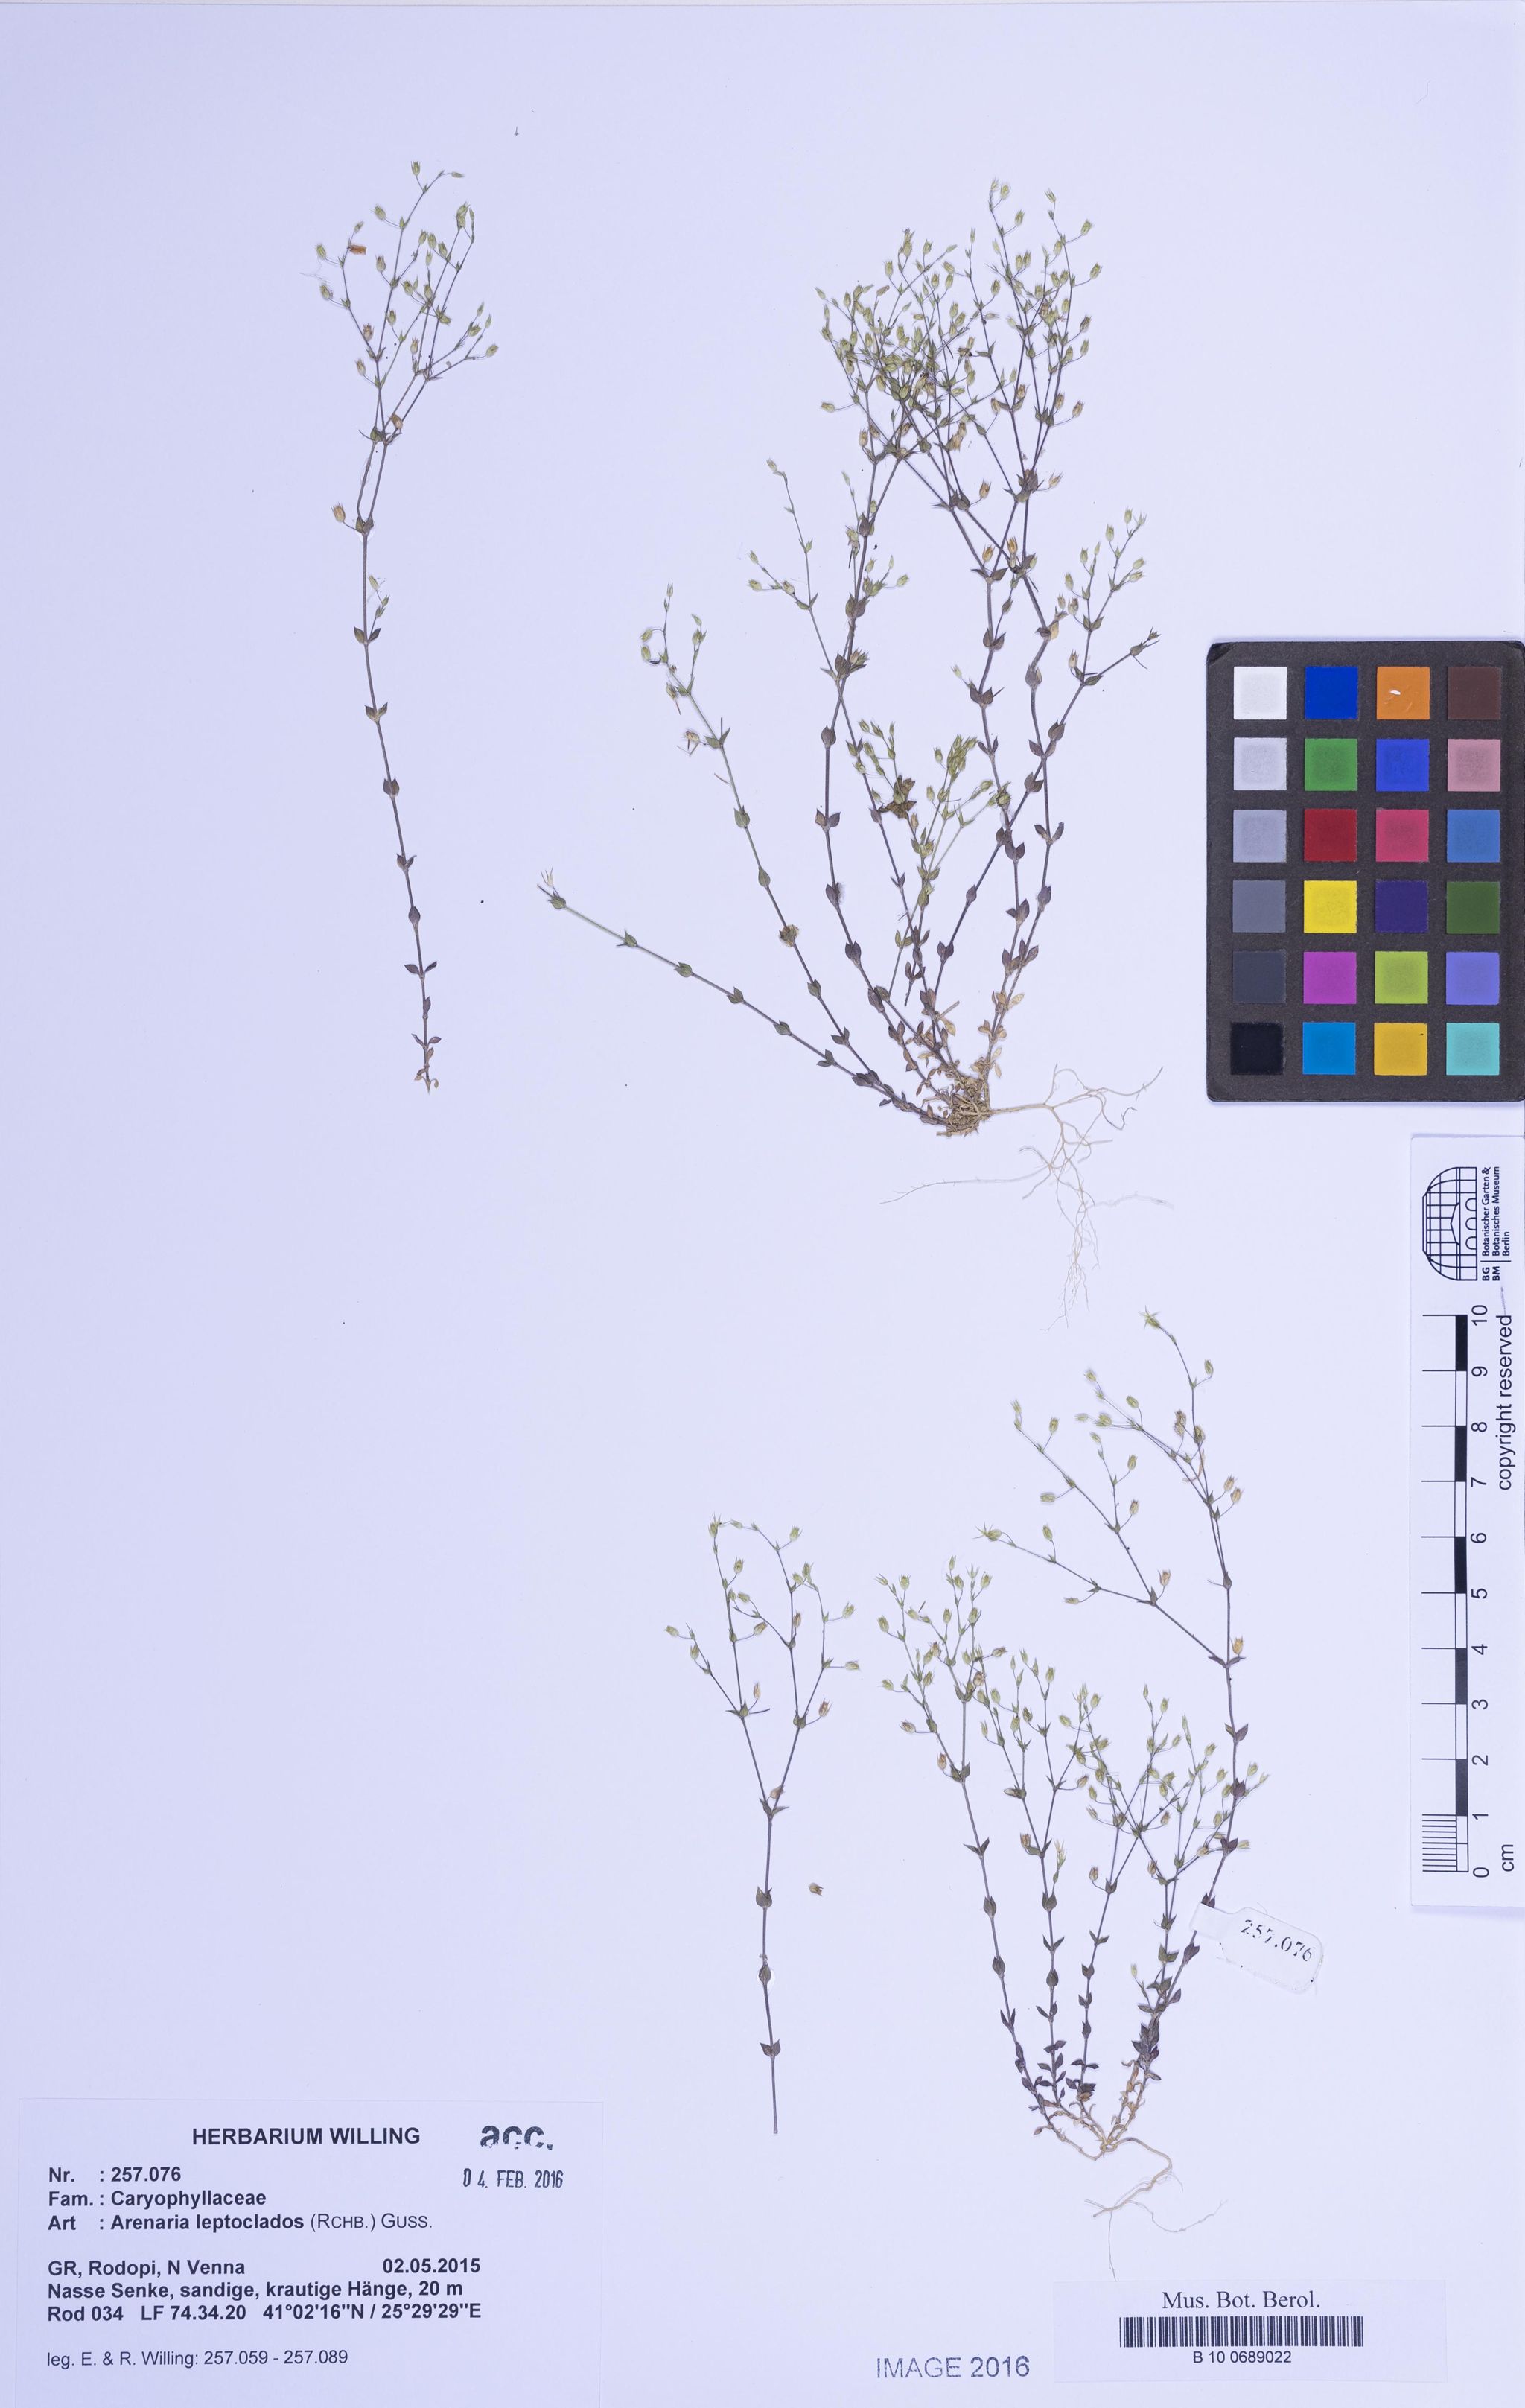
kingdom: Plantae
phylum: Tracheophyta
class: Magnoliopsida
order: Caryophyllales
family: Caryophyllaceae
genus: Arenaria
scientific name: Arenaria leptoclados
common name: Thyme-leaved sandwort
